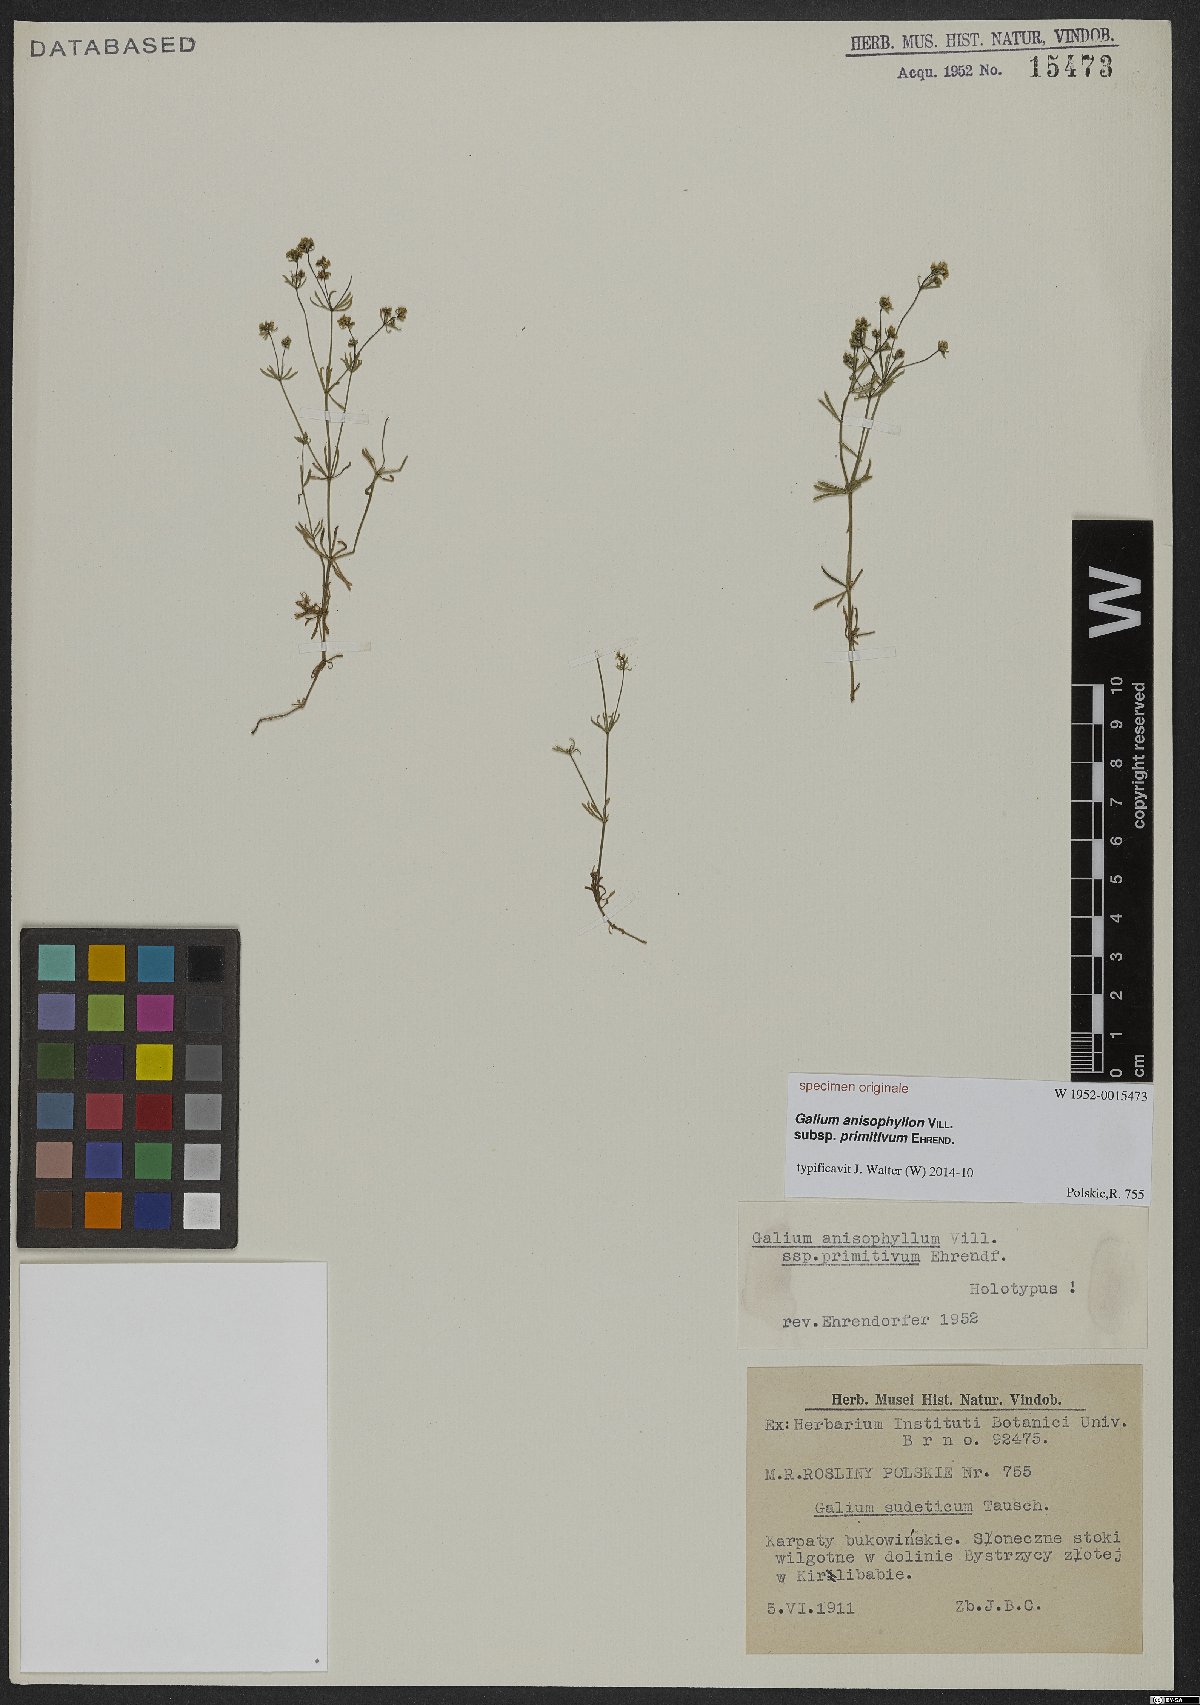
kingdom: Plantae
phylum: Tracheophyta
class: Magnoliopsida
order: Gentianales
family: Rubiaceae
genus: Galium
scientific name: Galium anisophyllon
